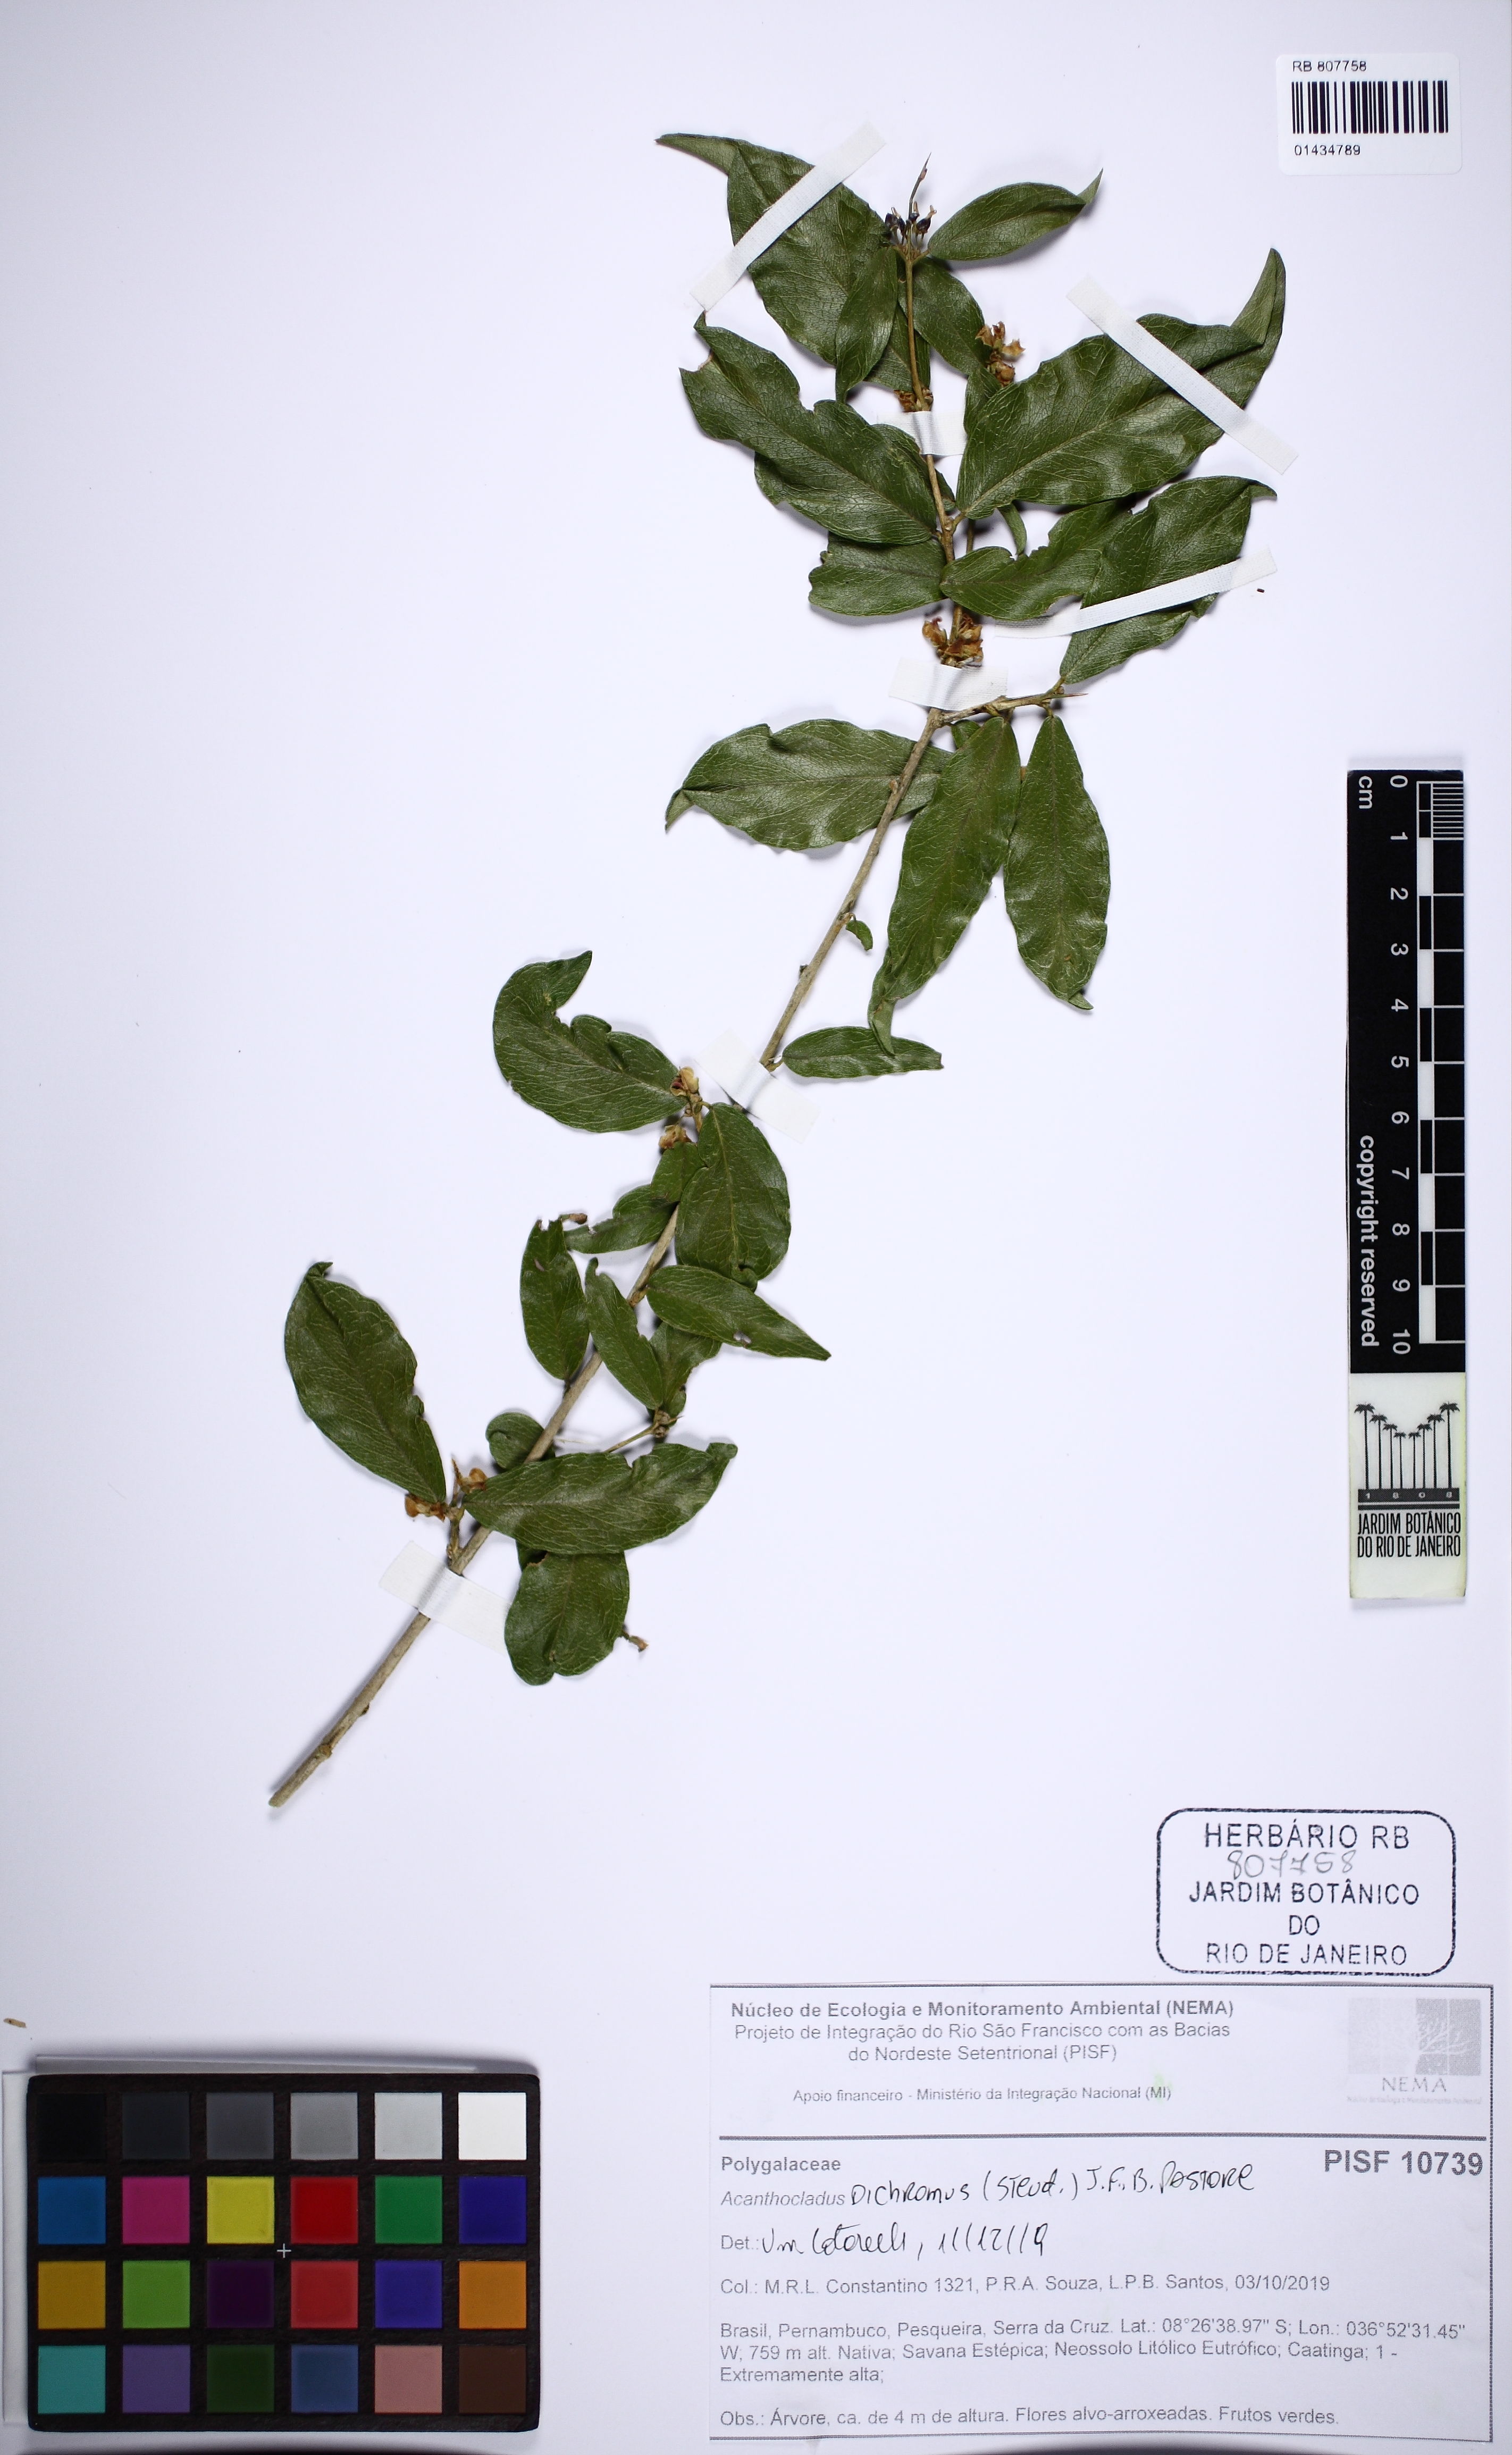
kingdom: Plantae
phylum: Tracheophyta
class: Magnoliopsida
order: Fabales
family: Polygalaceae
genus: Acanthocladus
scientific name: Acanthocladus dichromus
